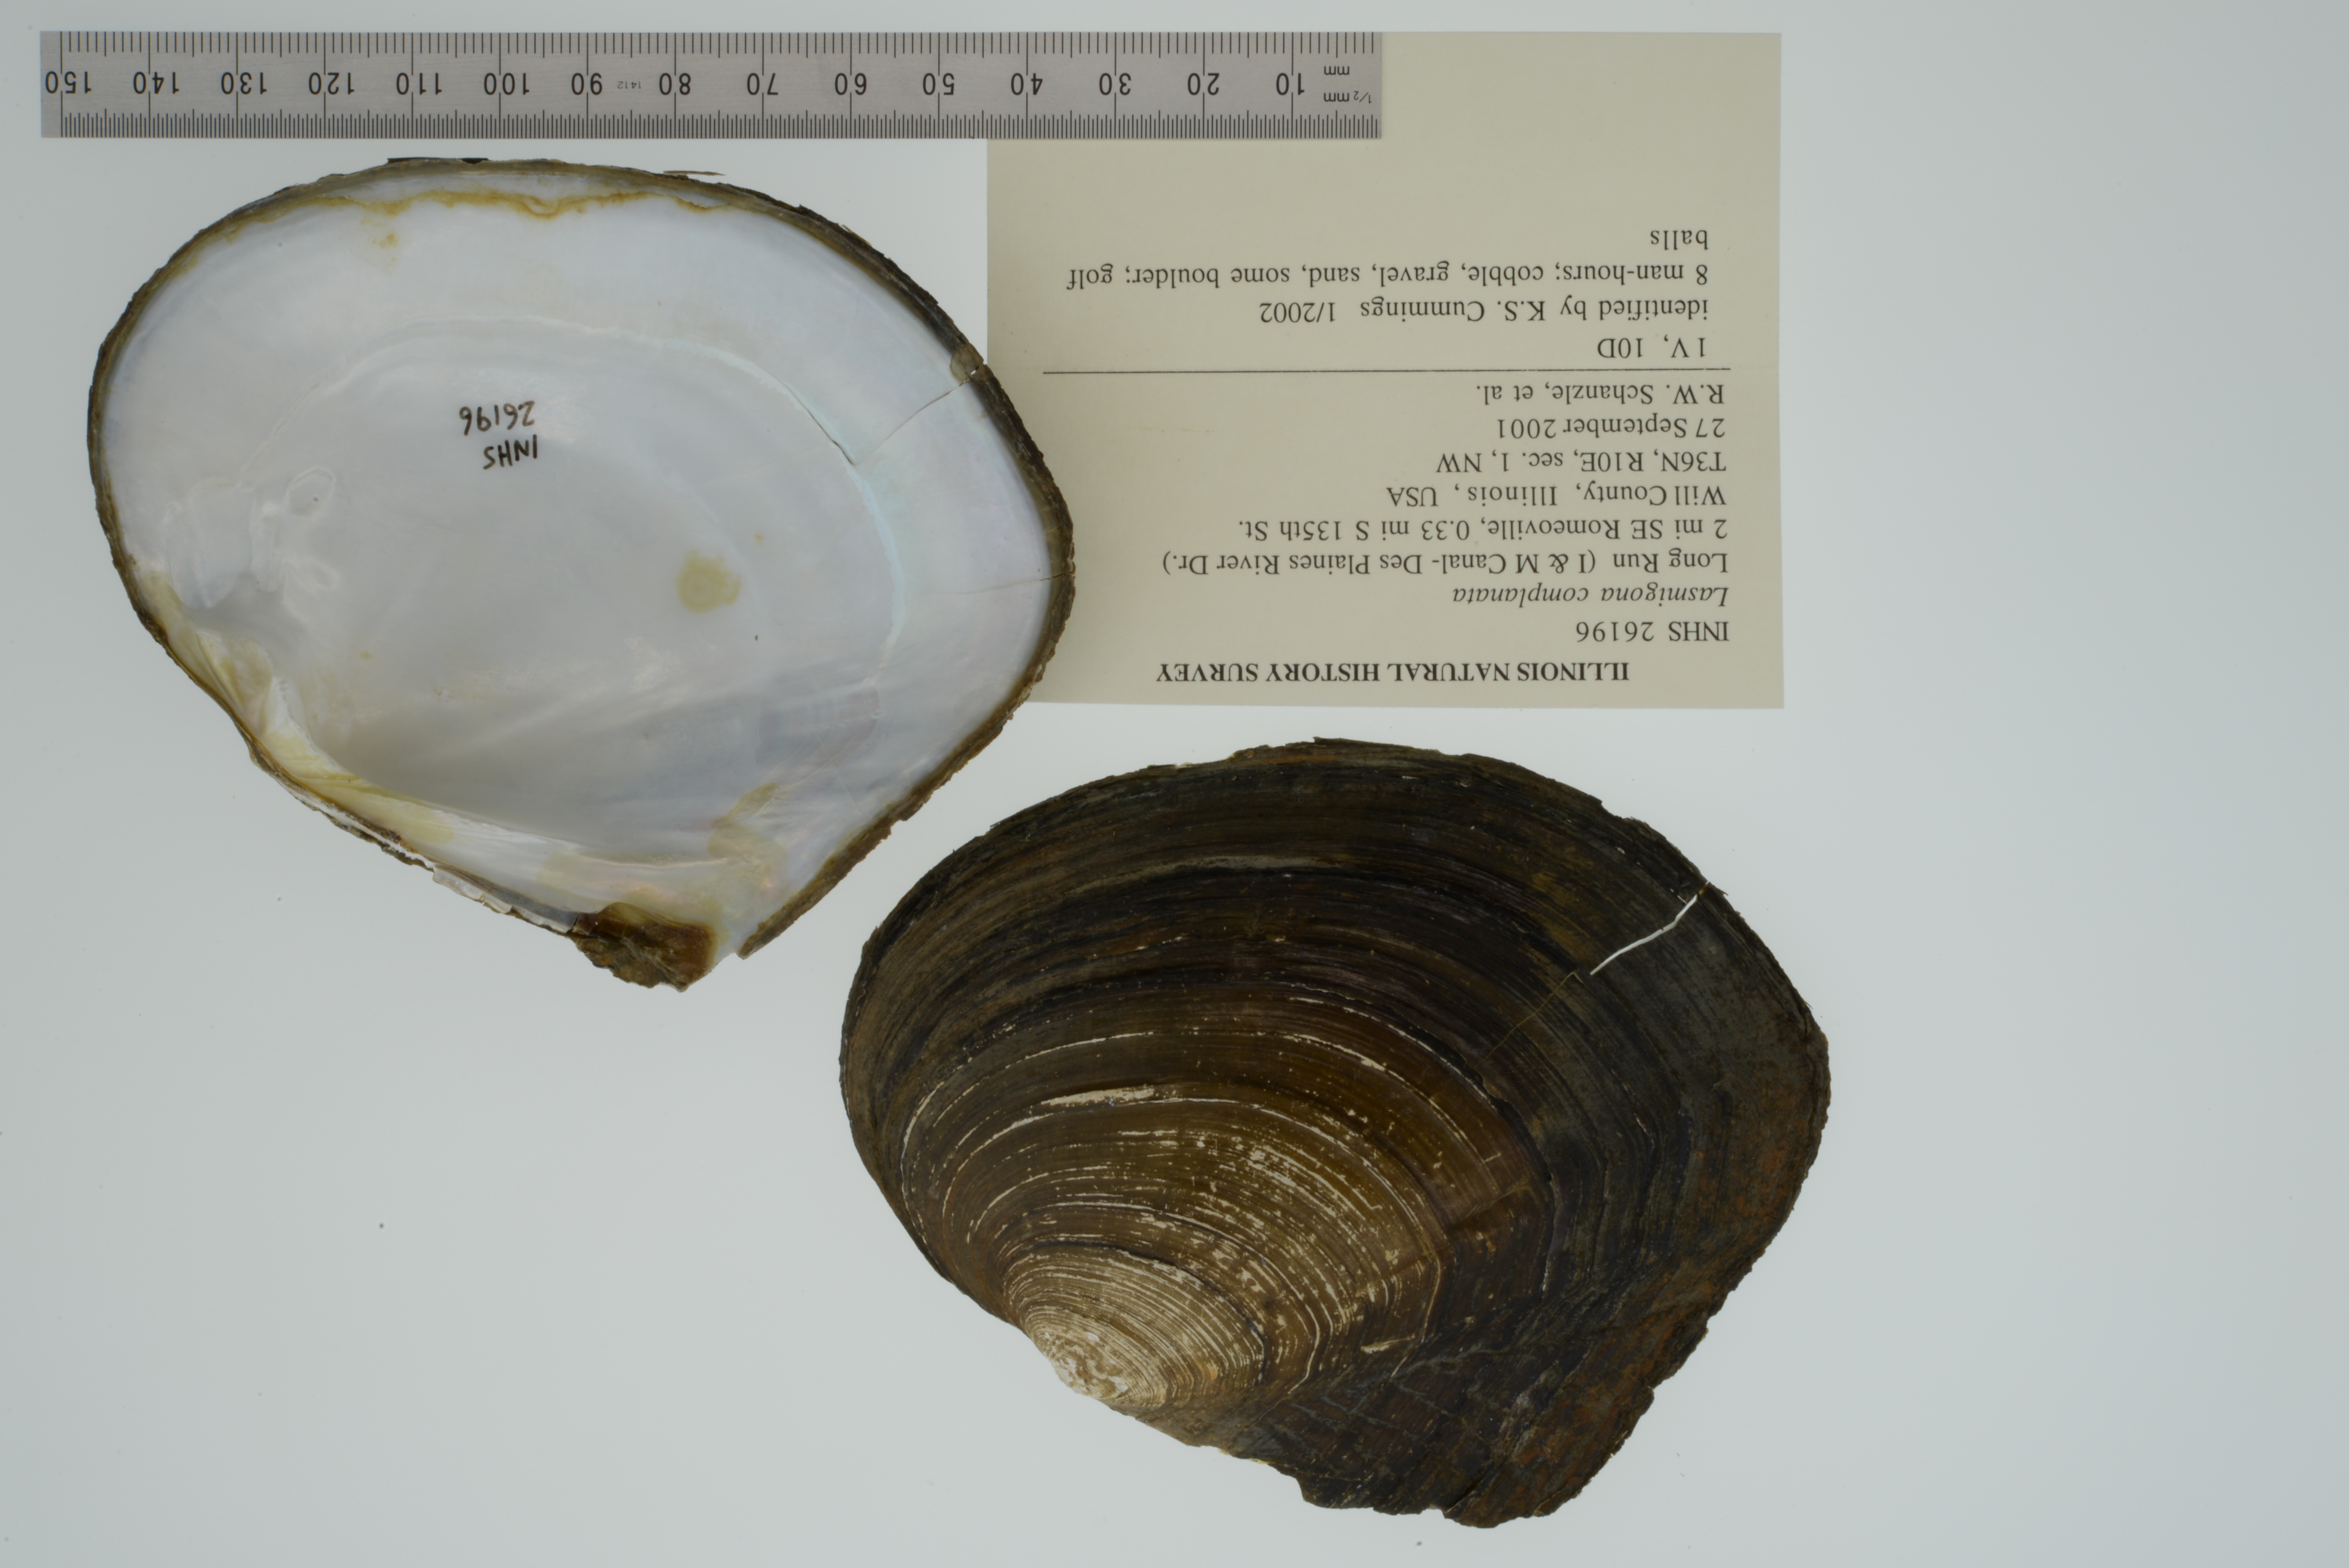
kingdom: Animalia
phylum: Mollusca
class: Bivalvia
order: Unionida
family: Unionidae
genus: Lasmigona
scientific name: Lasmigona complanata
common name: White heelsplitter
